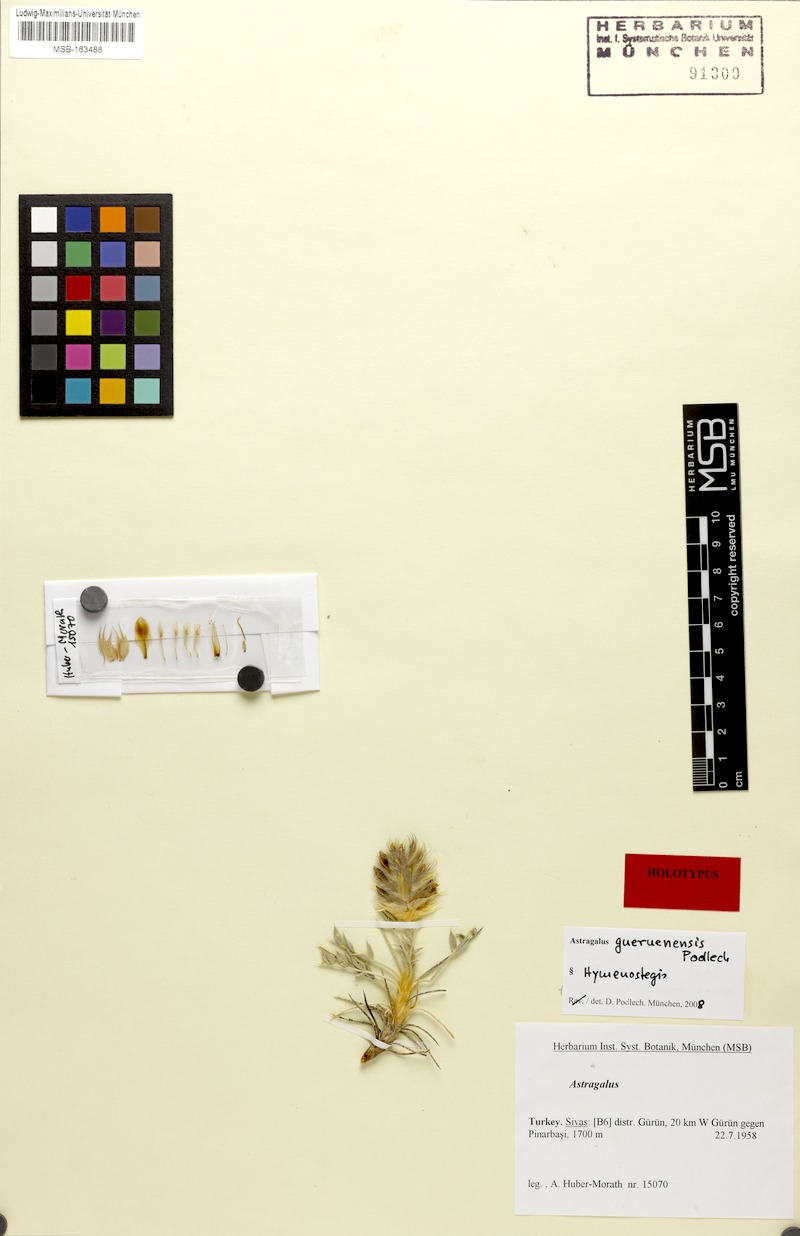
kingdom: Plantae
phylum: Tracheophyta
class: Magnoliopsida
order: Fabales
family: Fabaceae
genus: Astragalus
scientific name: Astragalus gueruenensis
